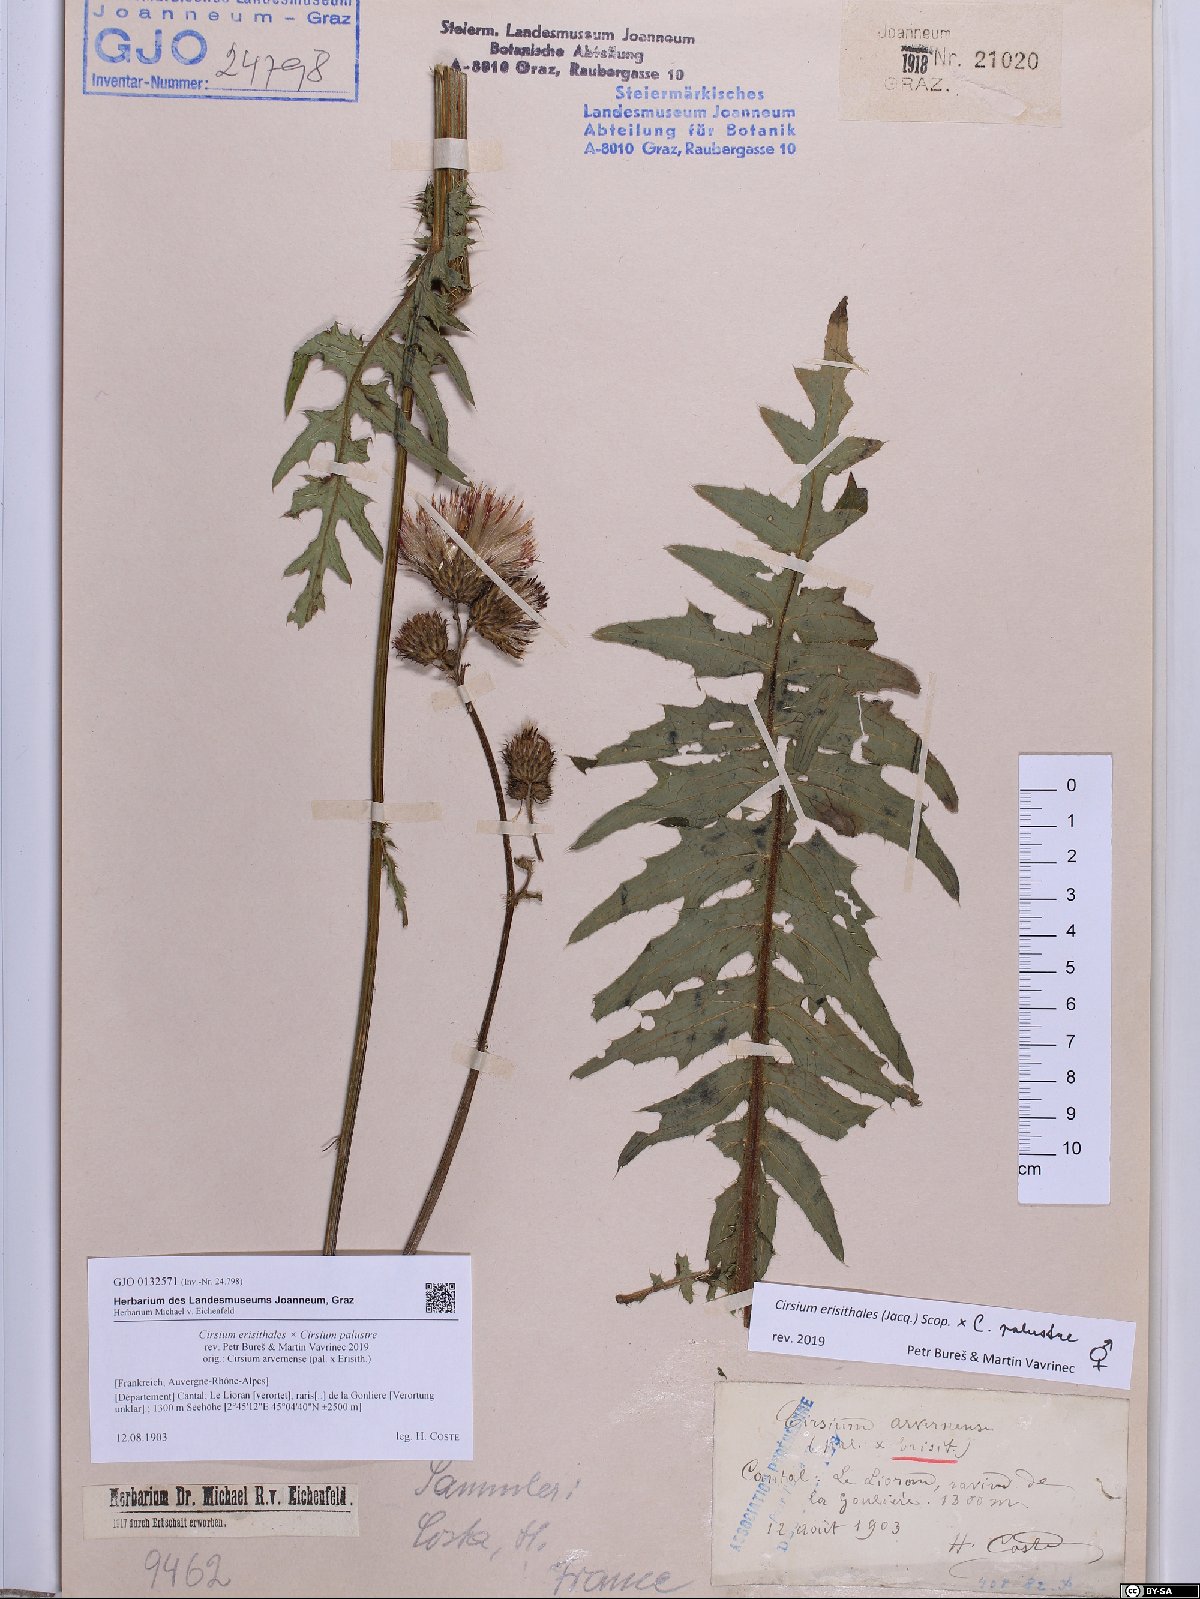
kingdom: Plantae
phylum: Tracheophyta
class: Magnoliopsida
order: Asterales
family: Asteraceae
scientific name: Asteraceae
